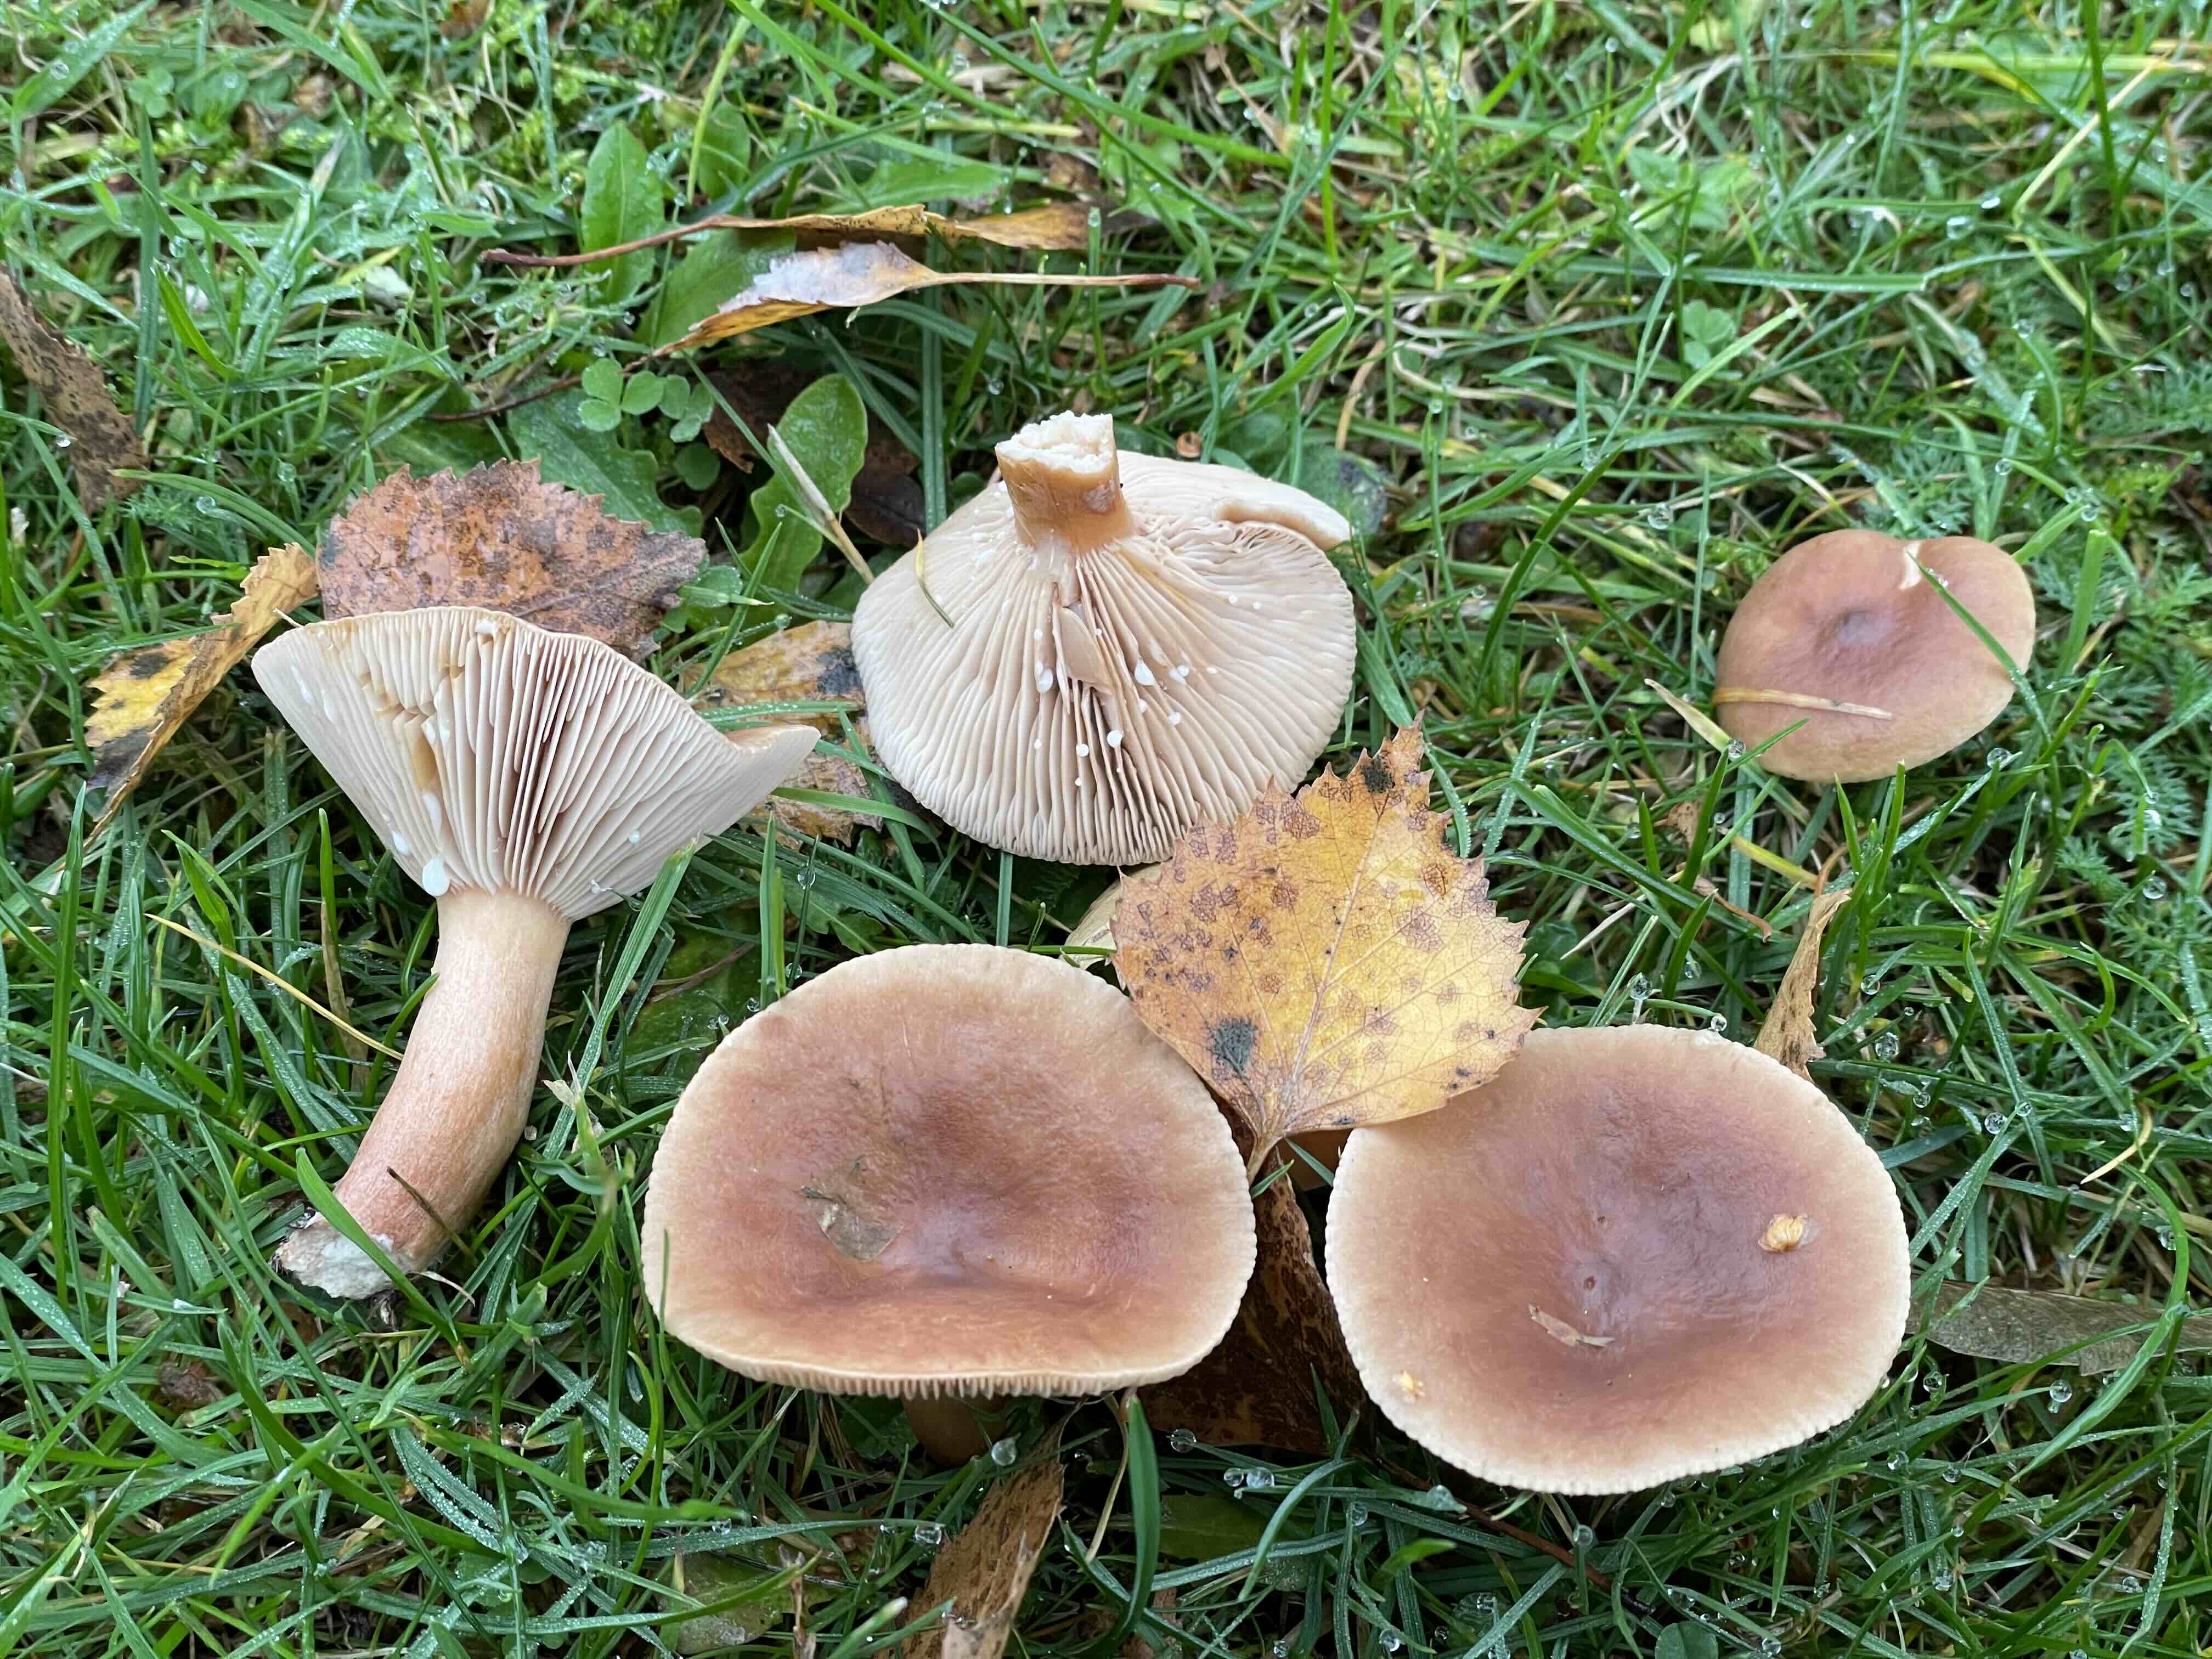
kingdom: Fungi
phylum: Basidiomycota
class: Agaricomycetes
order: Russulales
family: Russulaceae
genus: Lactarius
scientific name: Lactarius tabidus
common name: rynket mælkehat
